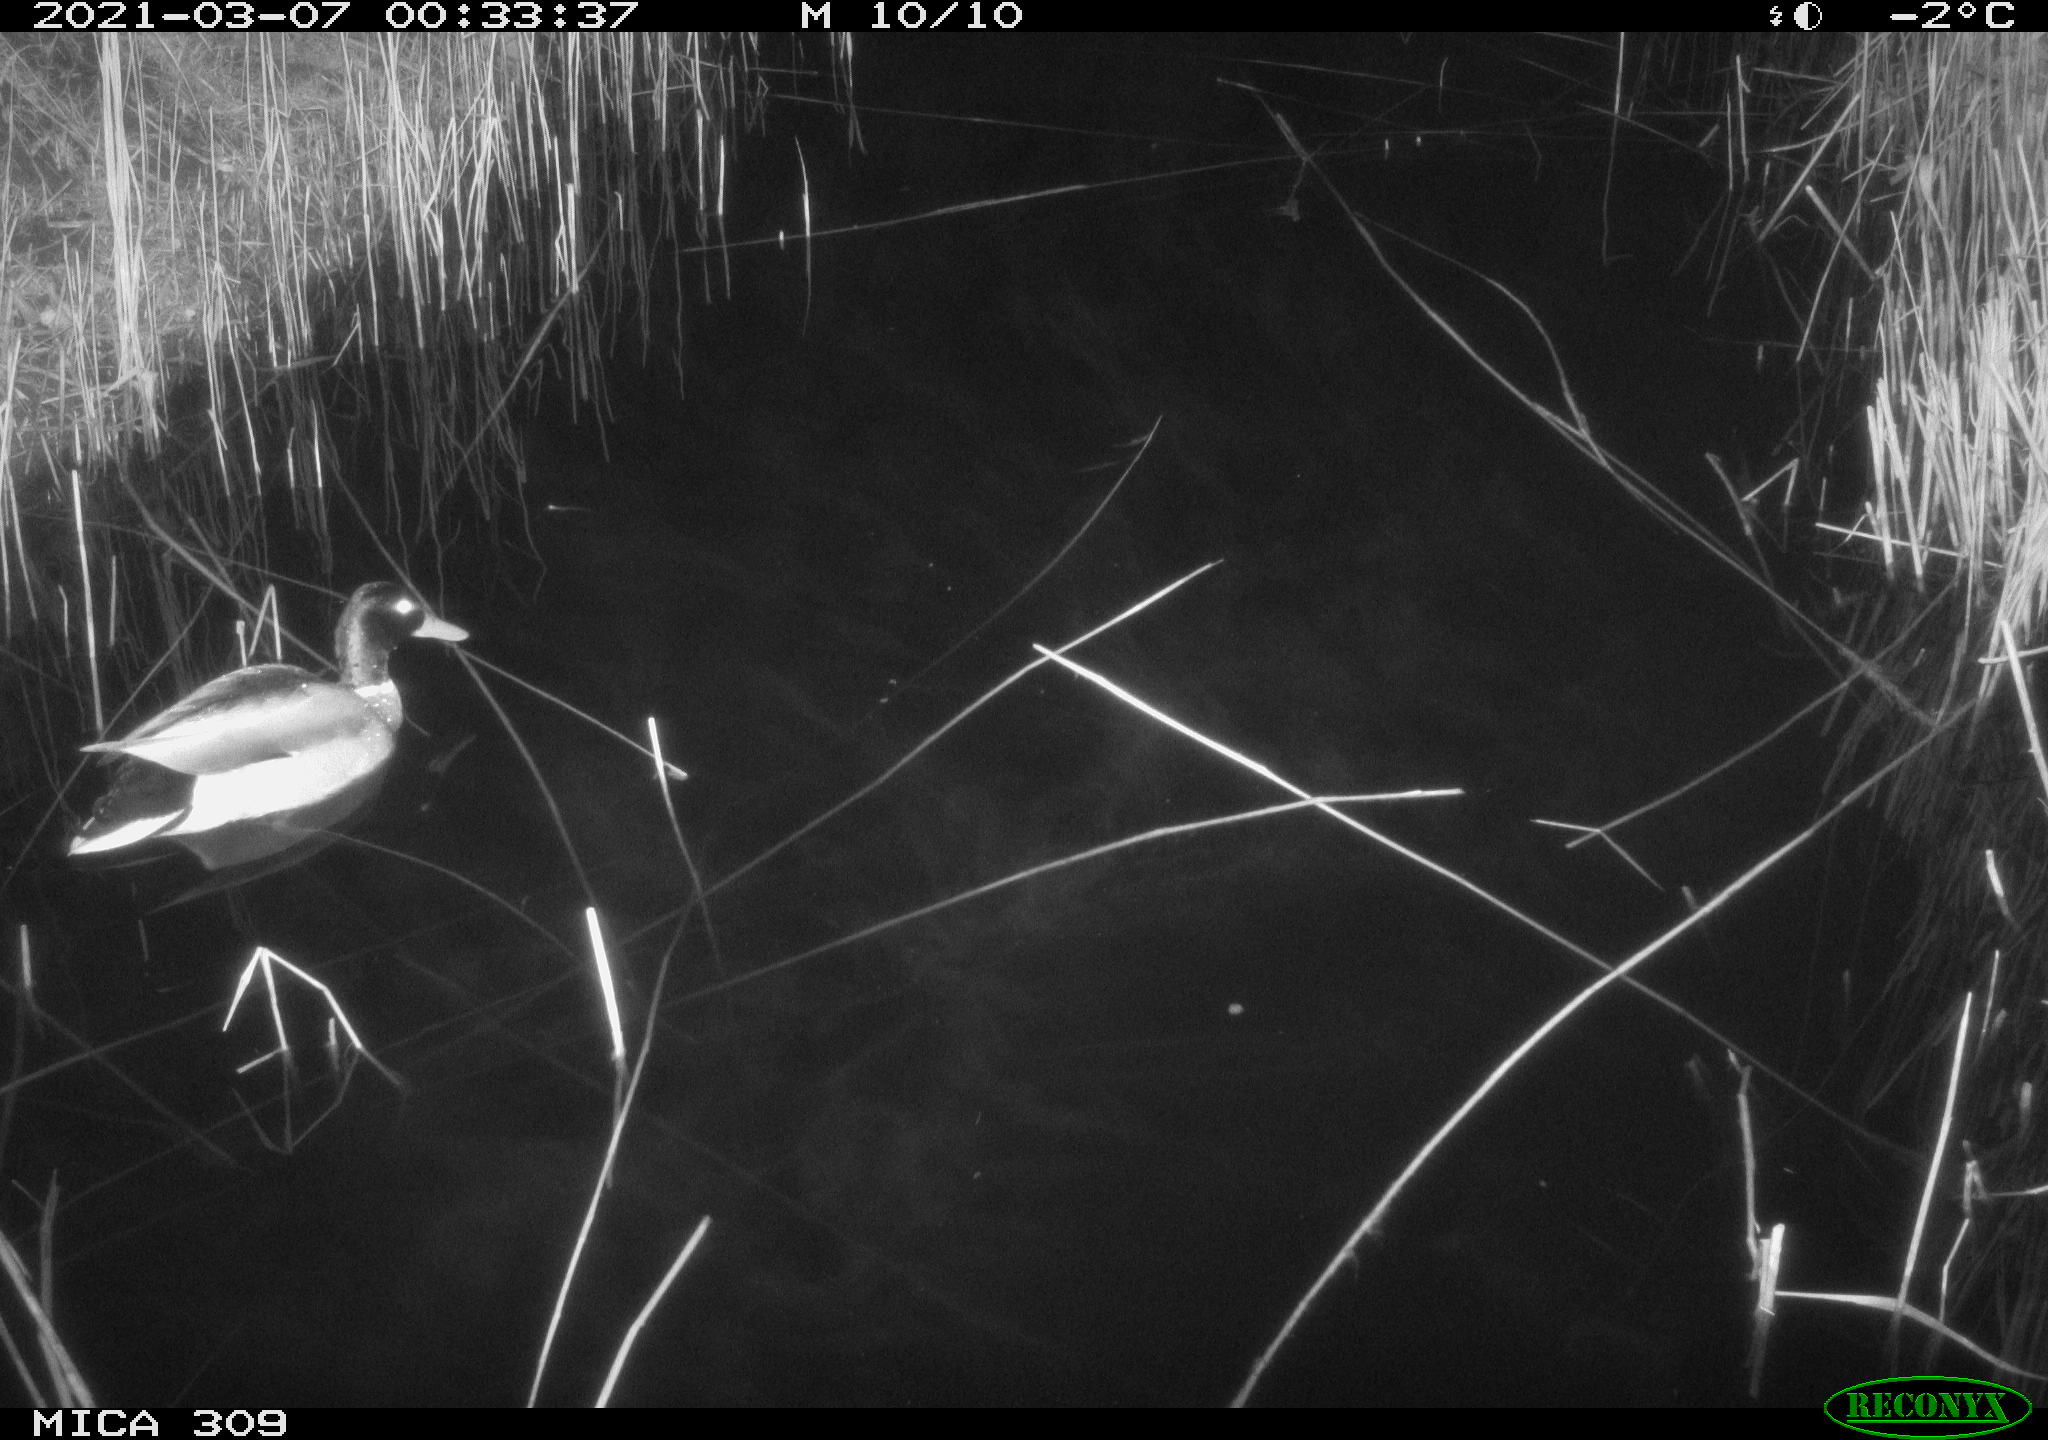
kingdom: Animalia
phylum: Chordata
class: Aves
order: Anseriformes
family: Anatidae
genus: Anas
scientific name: Anas platyrhynchos
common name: Mallard
